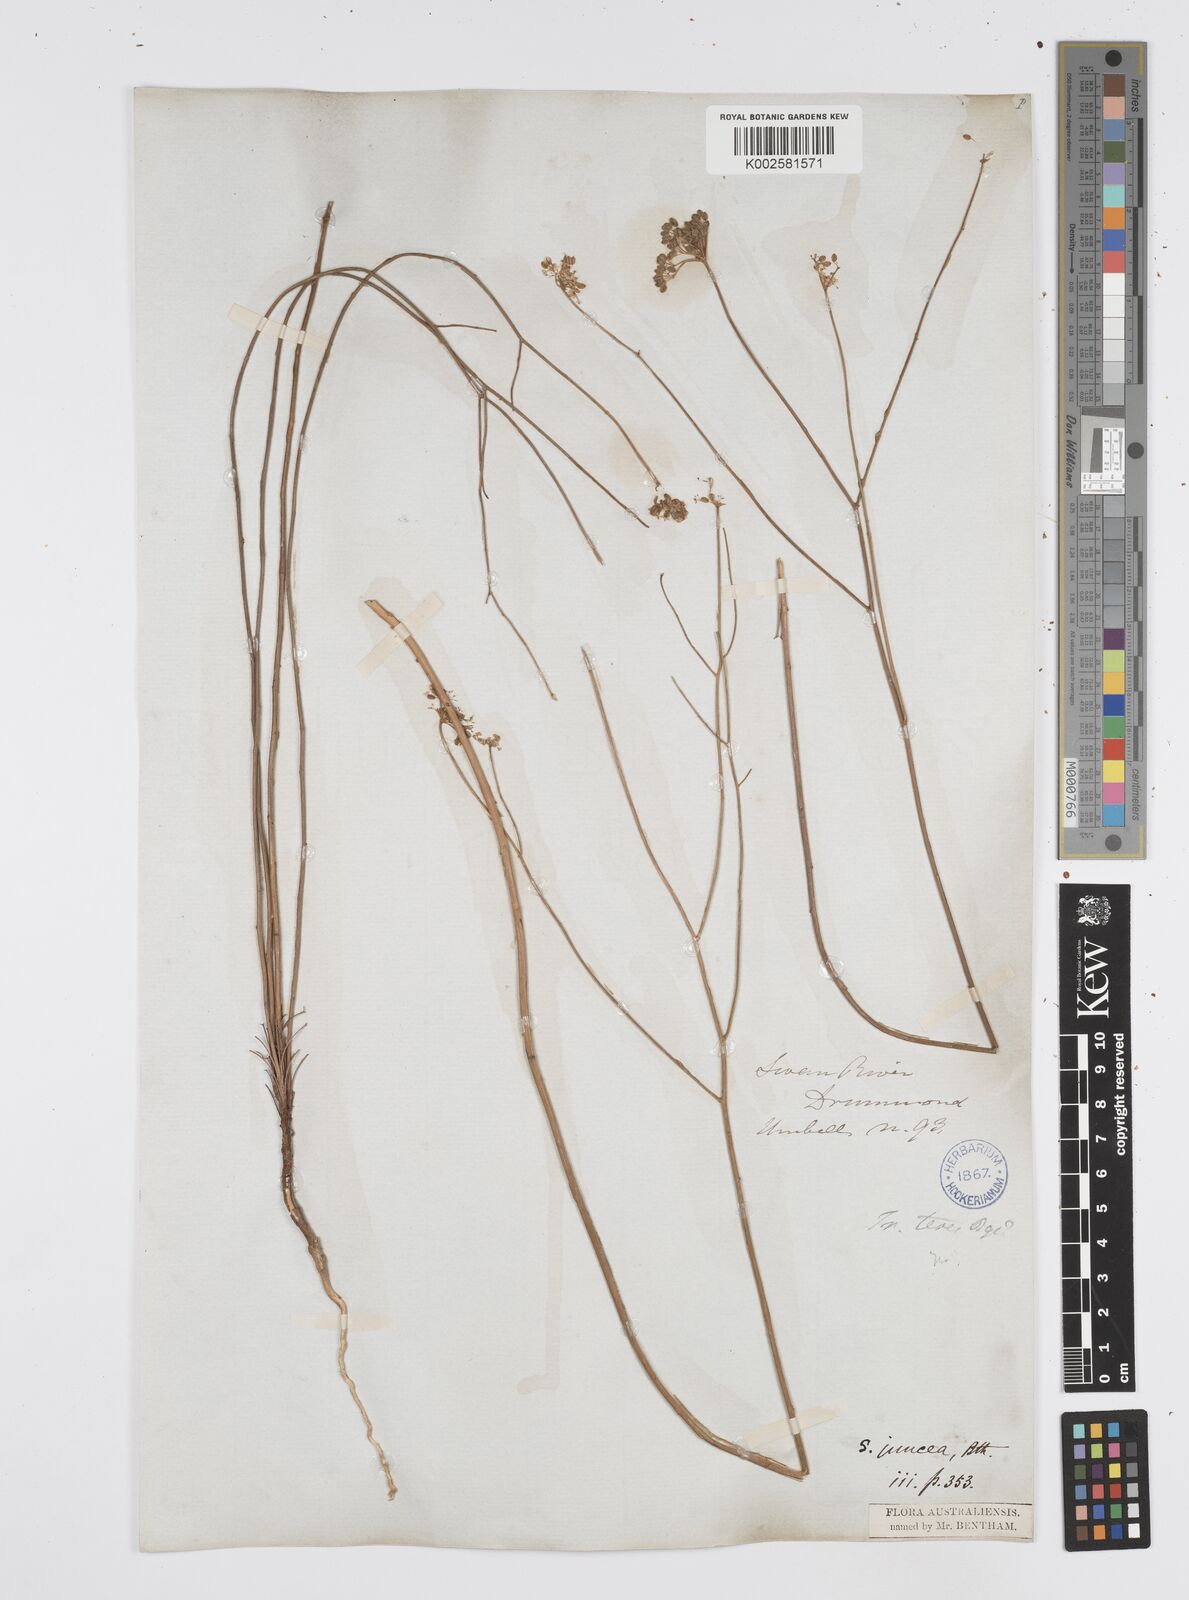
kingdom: Plantae
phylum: Tracheophyta
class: Magnoliopsida
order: Apiales
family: Apiaceae
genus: Platysace
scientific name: Platysace juncea
